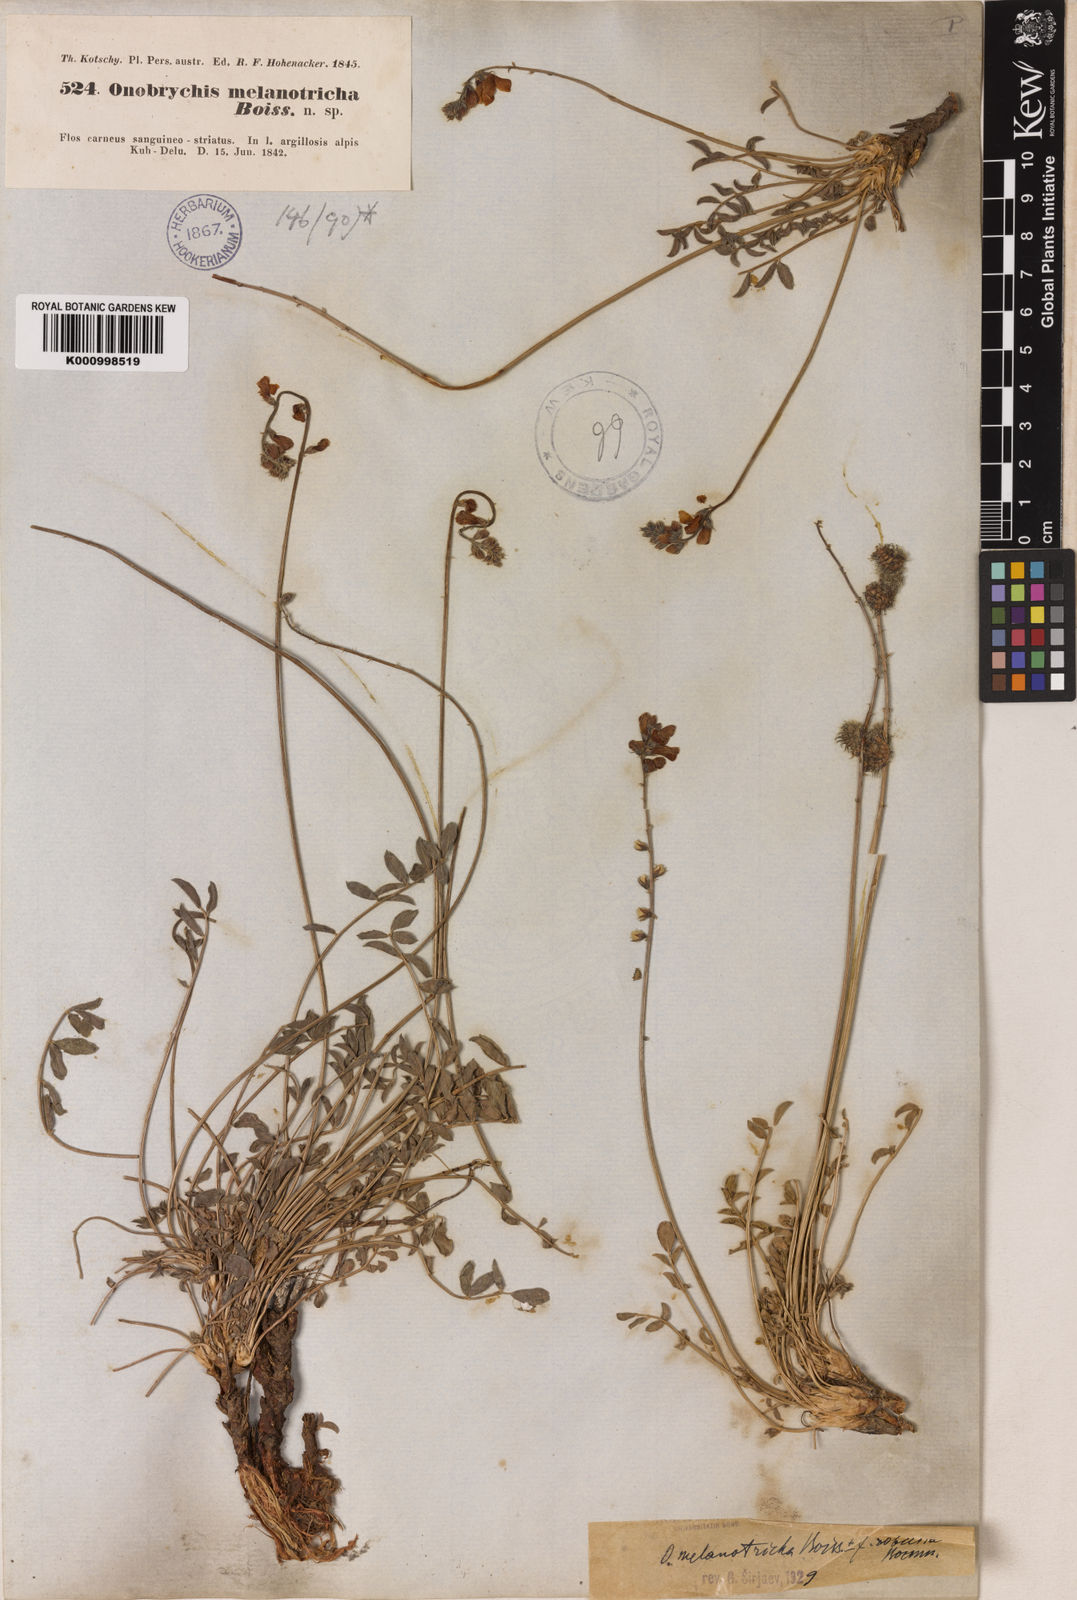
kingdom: Plantae
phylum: Tracheophyta
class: Magnoliopsida
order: Fabales
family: Fabaceae
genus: Onobrychis
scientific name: Onobrychis melanotricha
